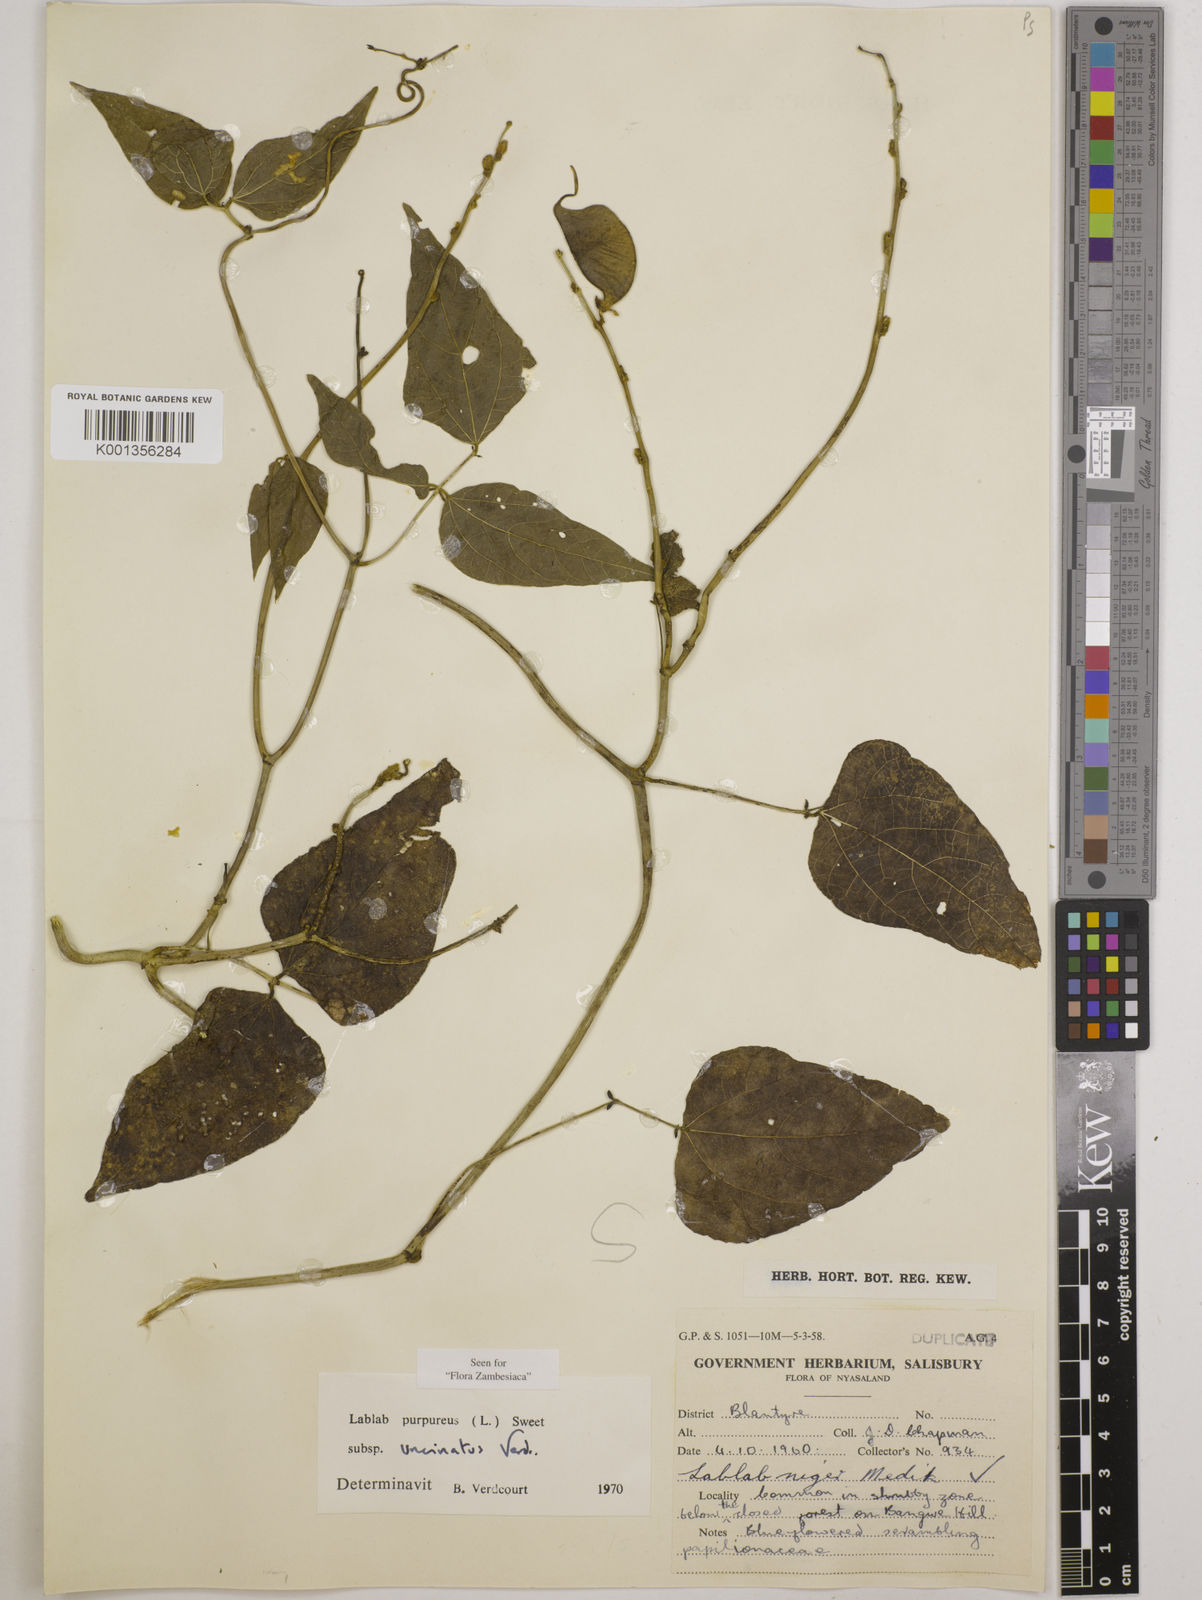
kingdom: Plantae
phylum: Tracheophyta
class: Magnoliopsida
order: Fabales
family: Fabaceae
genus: Lablab
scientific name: Lablab
